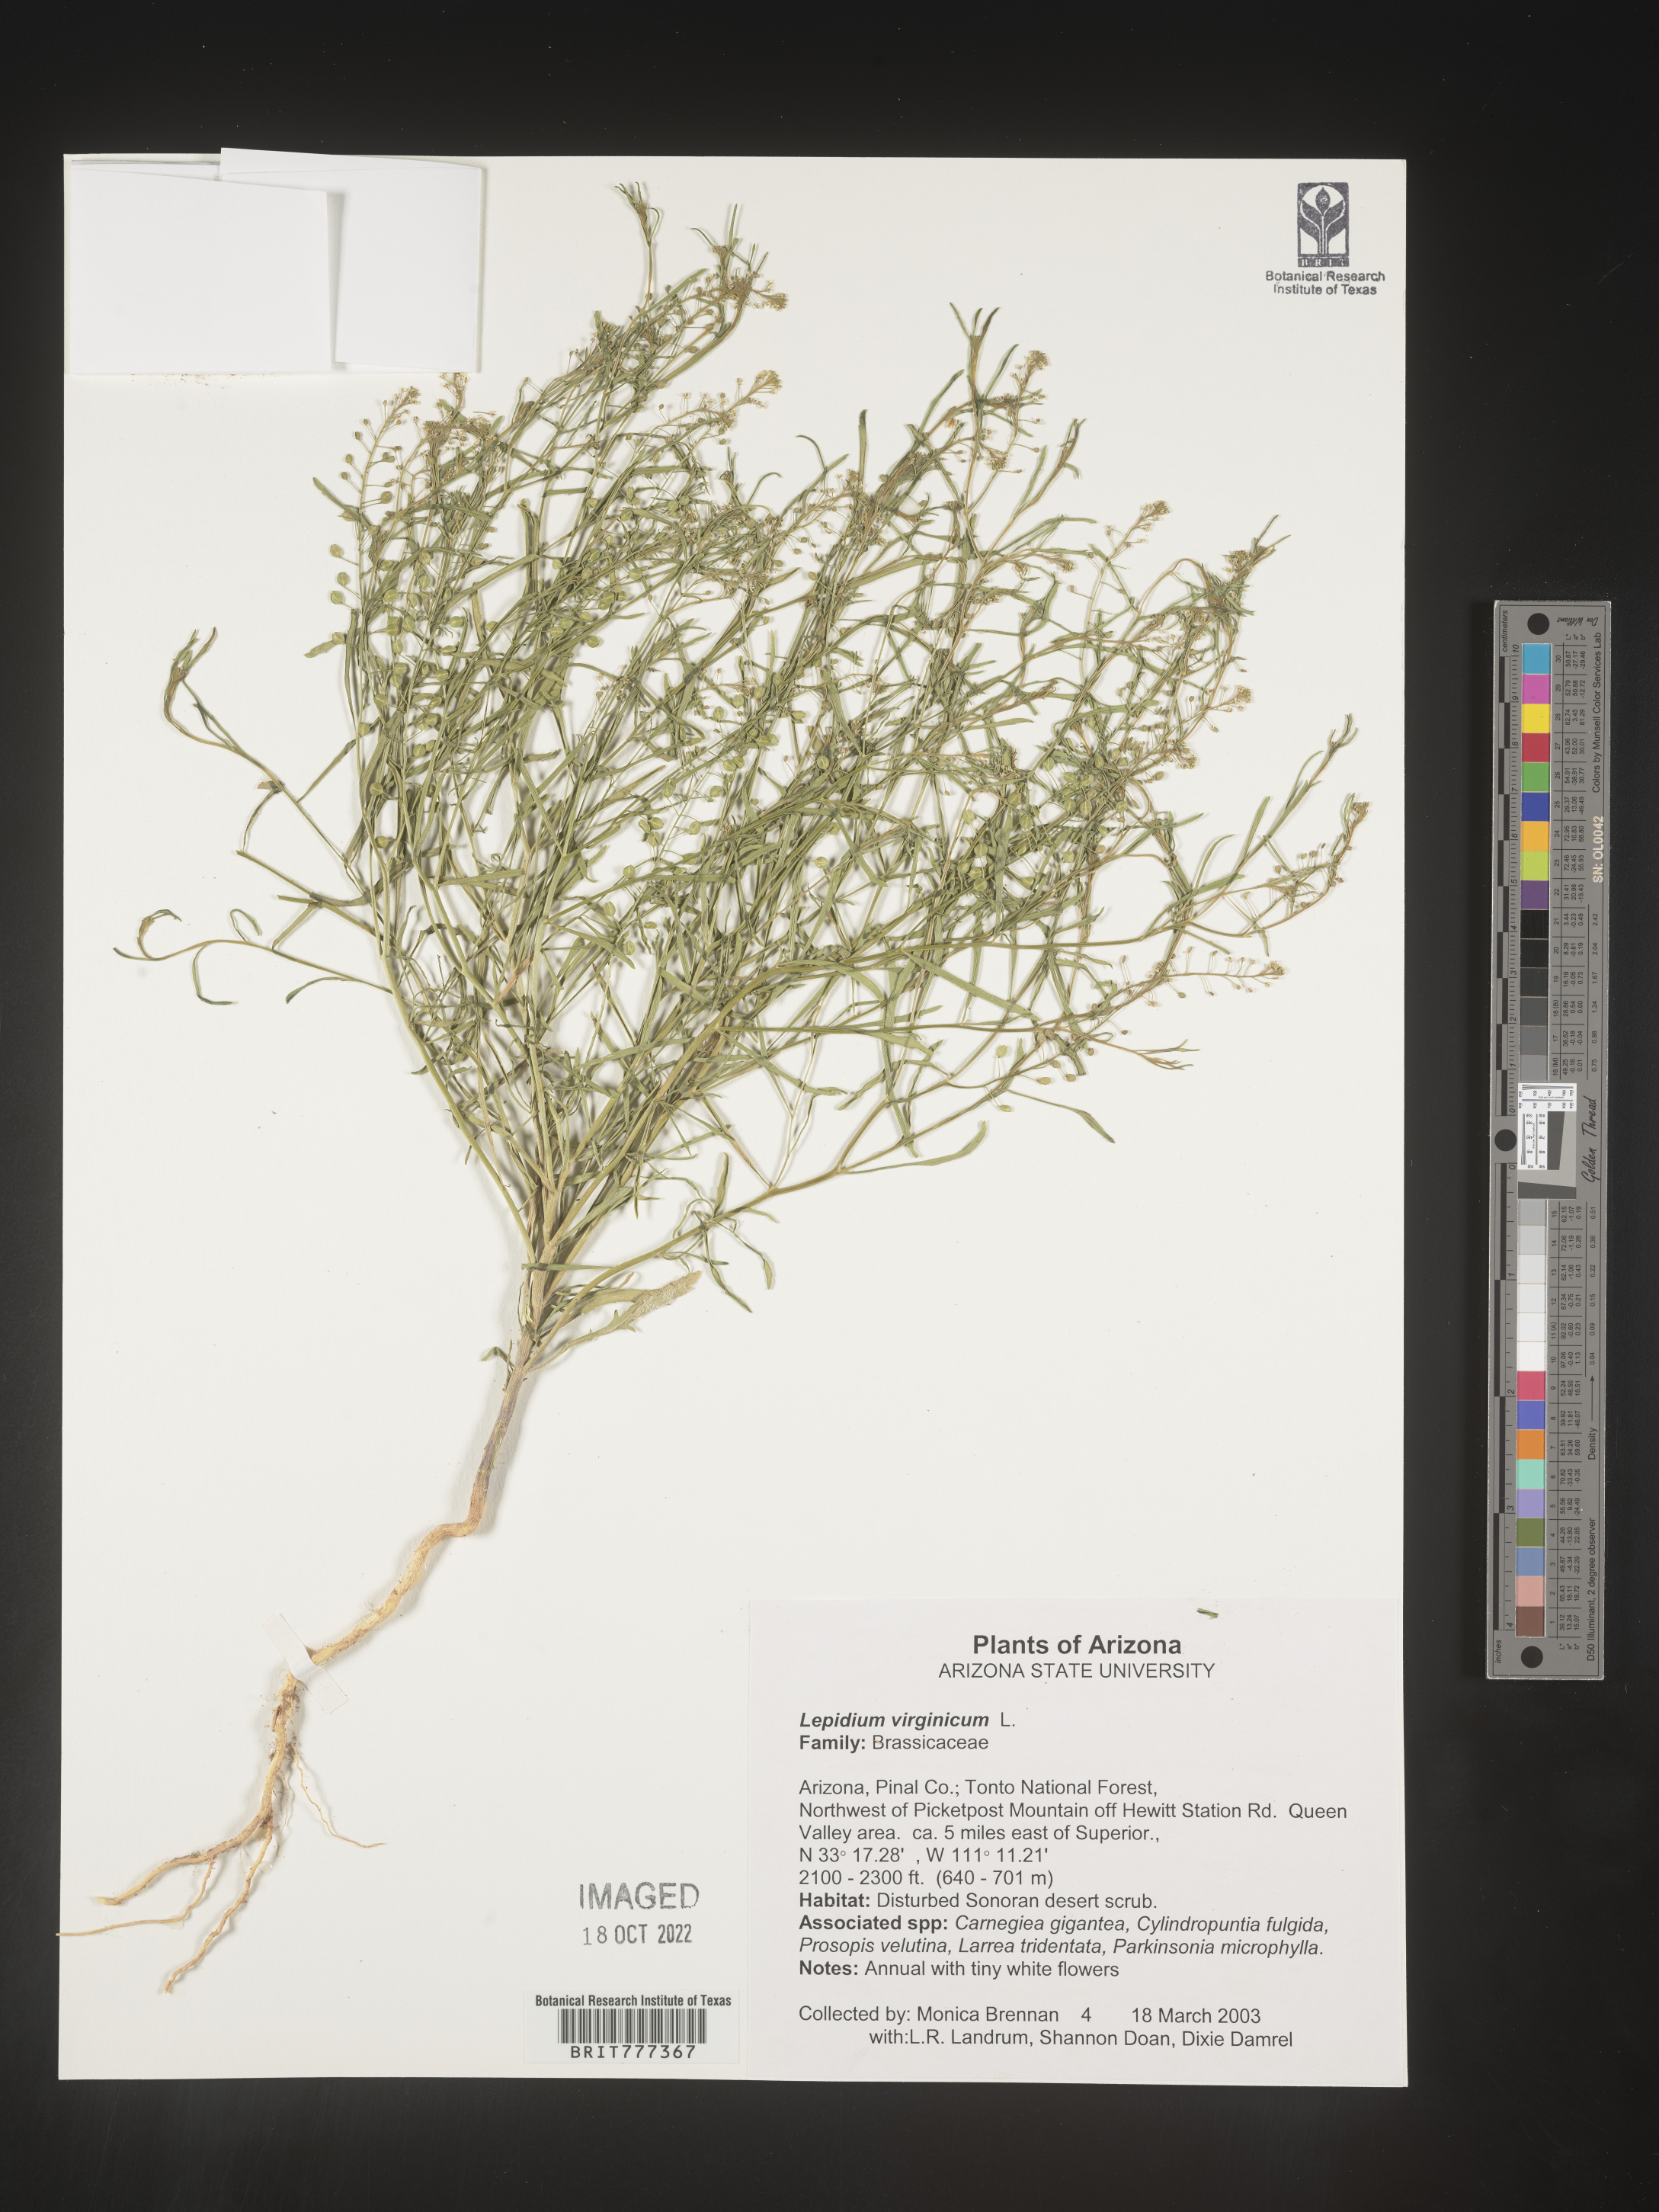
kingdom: Plantae
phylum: Tracheophyta
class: Magnoliopsida
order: Brassicales
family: Brassicaceae
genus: Lepidium
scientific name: Lepidium virginicum
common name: Least pepperwort
